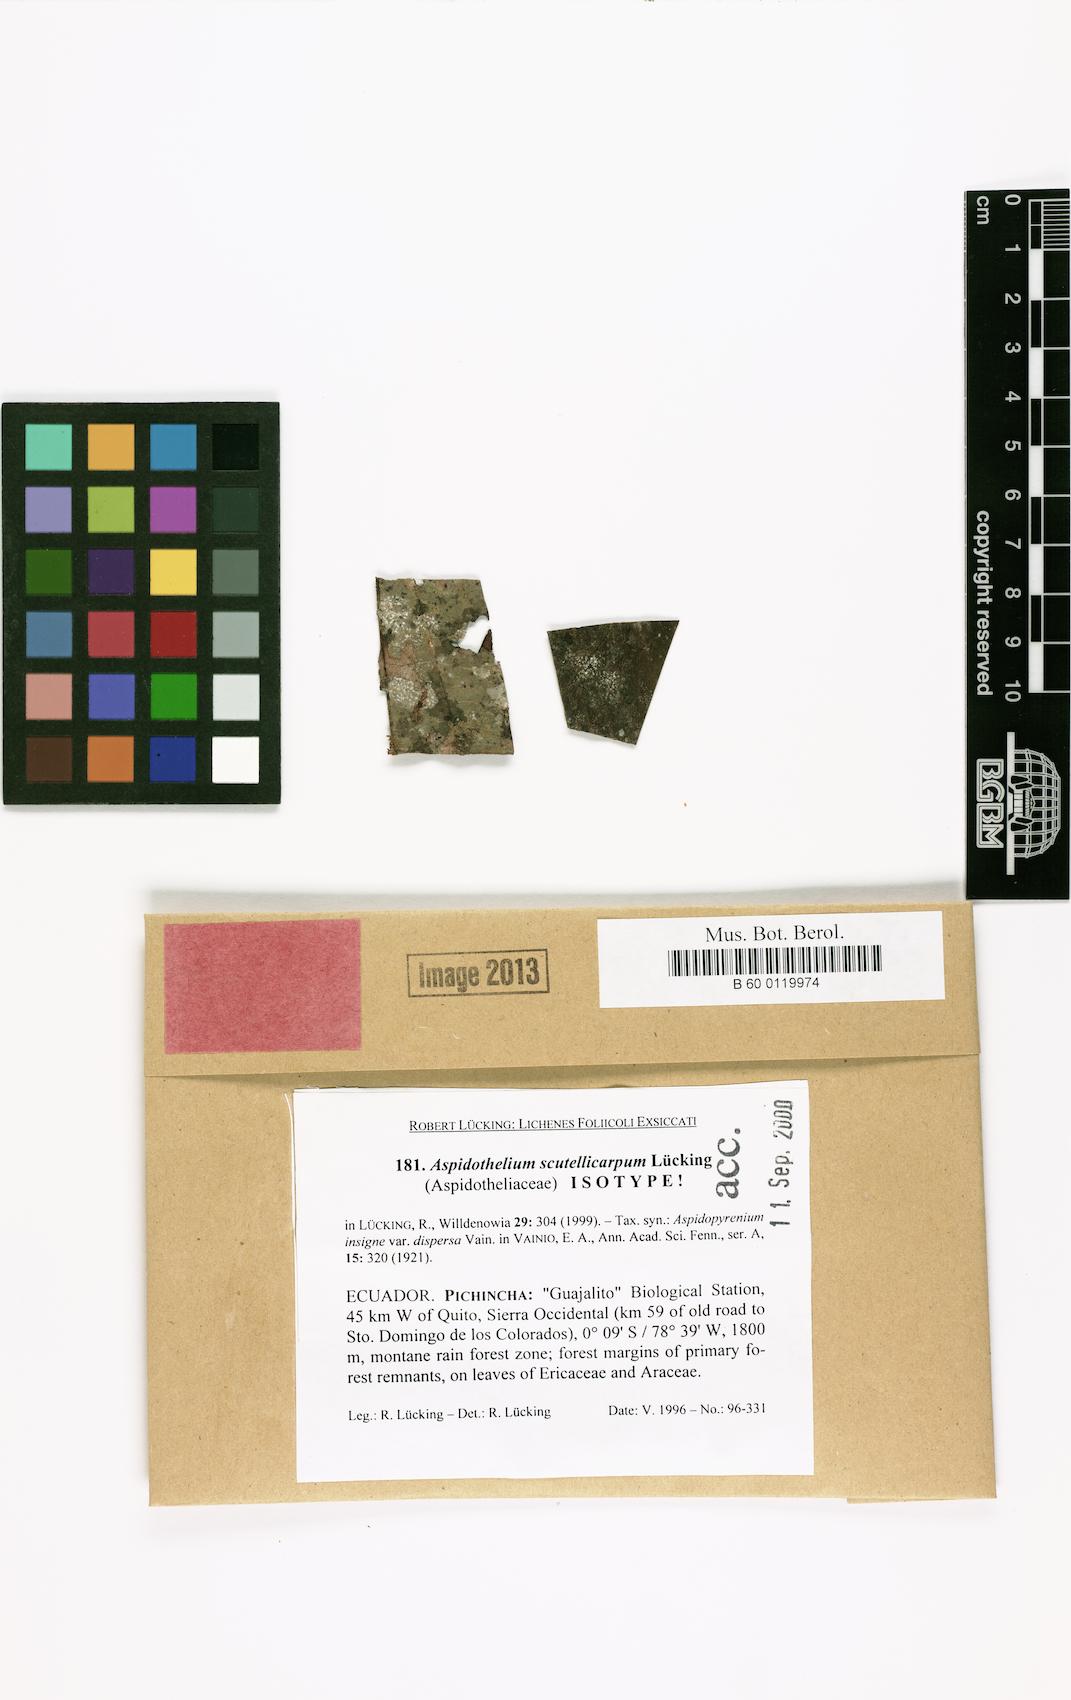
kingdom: Fungi
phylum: Ascomycota
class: Lecanoromycetes
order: Ostropales
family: Thelenellaceae
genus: Aspidothelium
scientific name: Aspidothelium scutellicarpum
